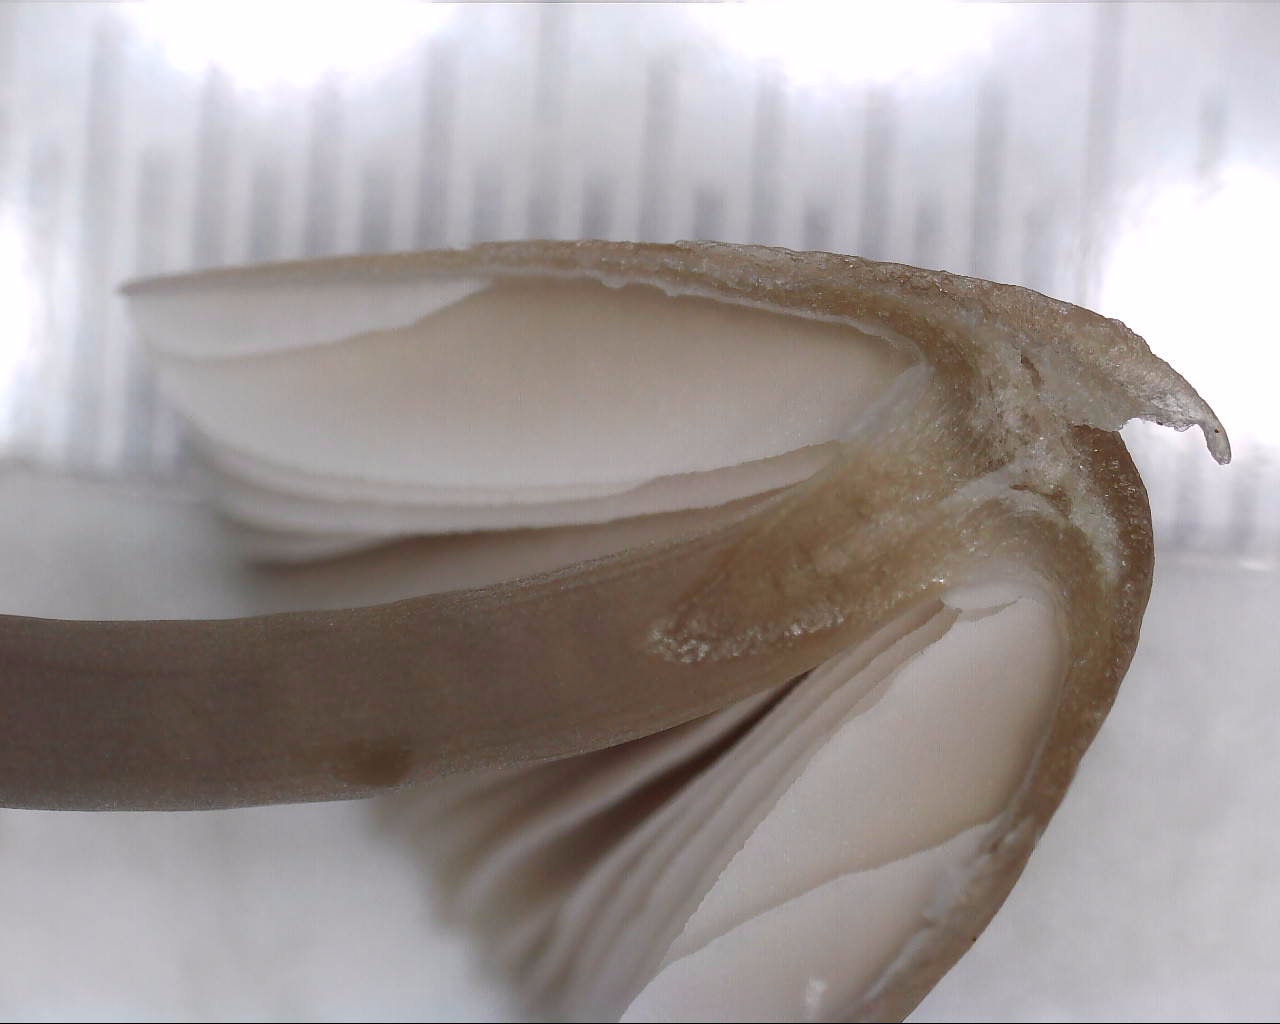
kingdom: Fungi
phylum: Basidiomycota
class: Agaricomycetes
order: Agaricales
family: Mycenaceae
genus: Mycena
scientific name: Mycena filopes
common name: Iodine bonnet
